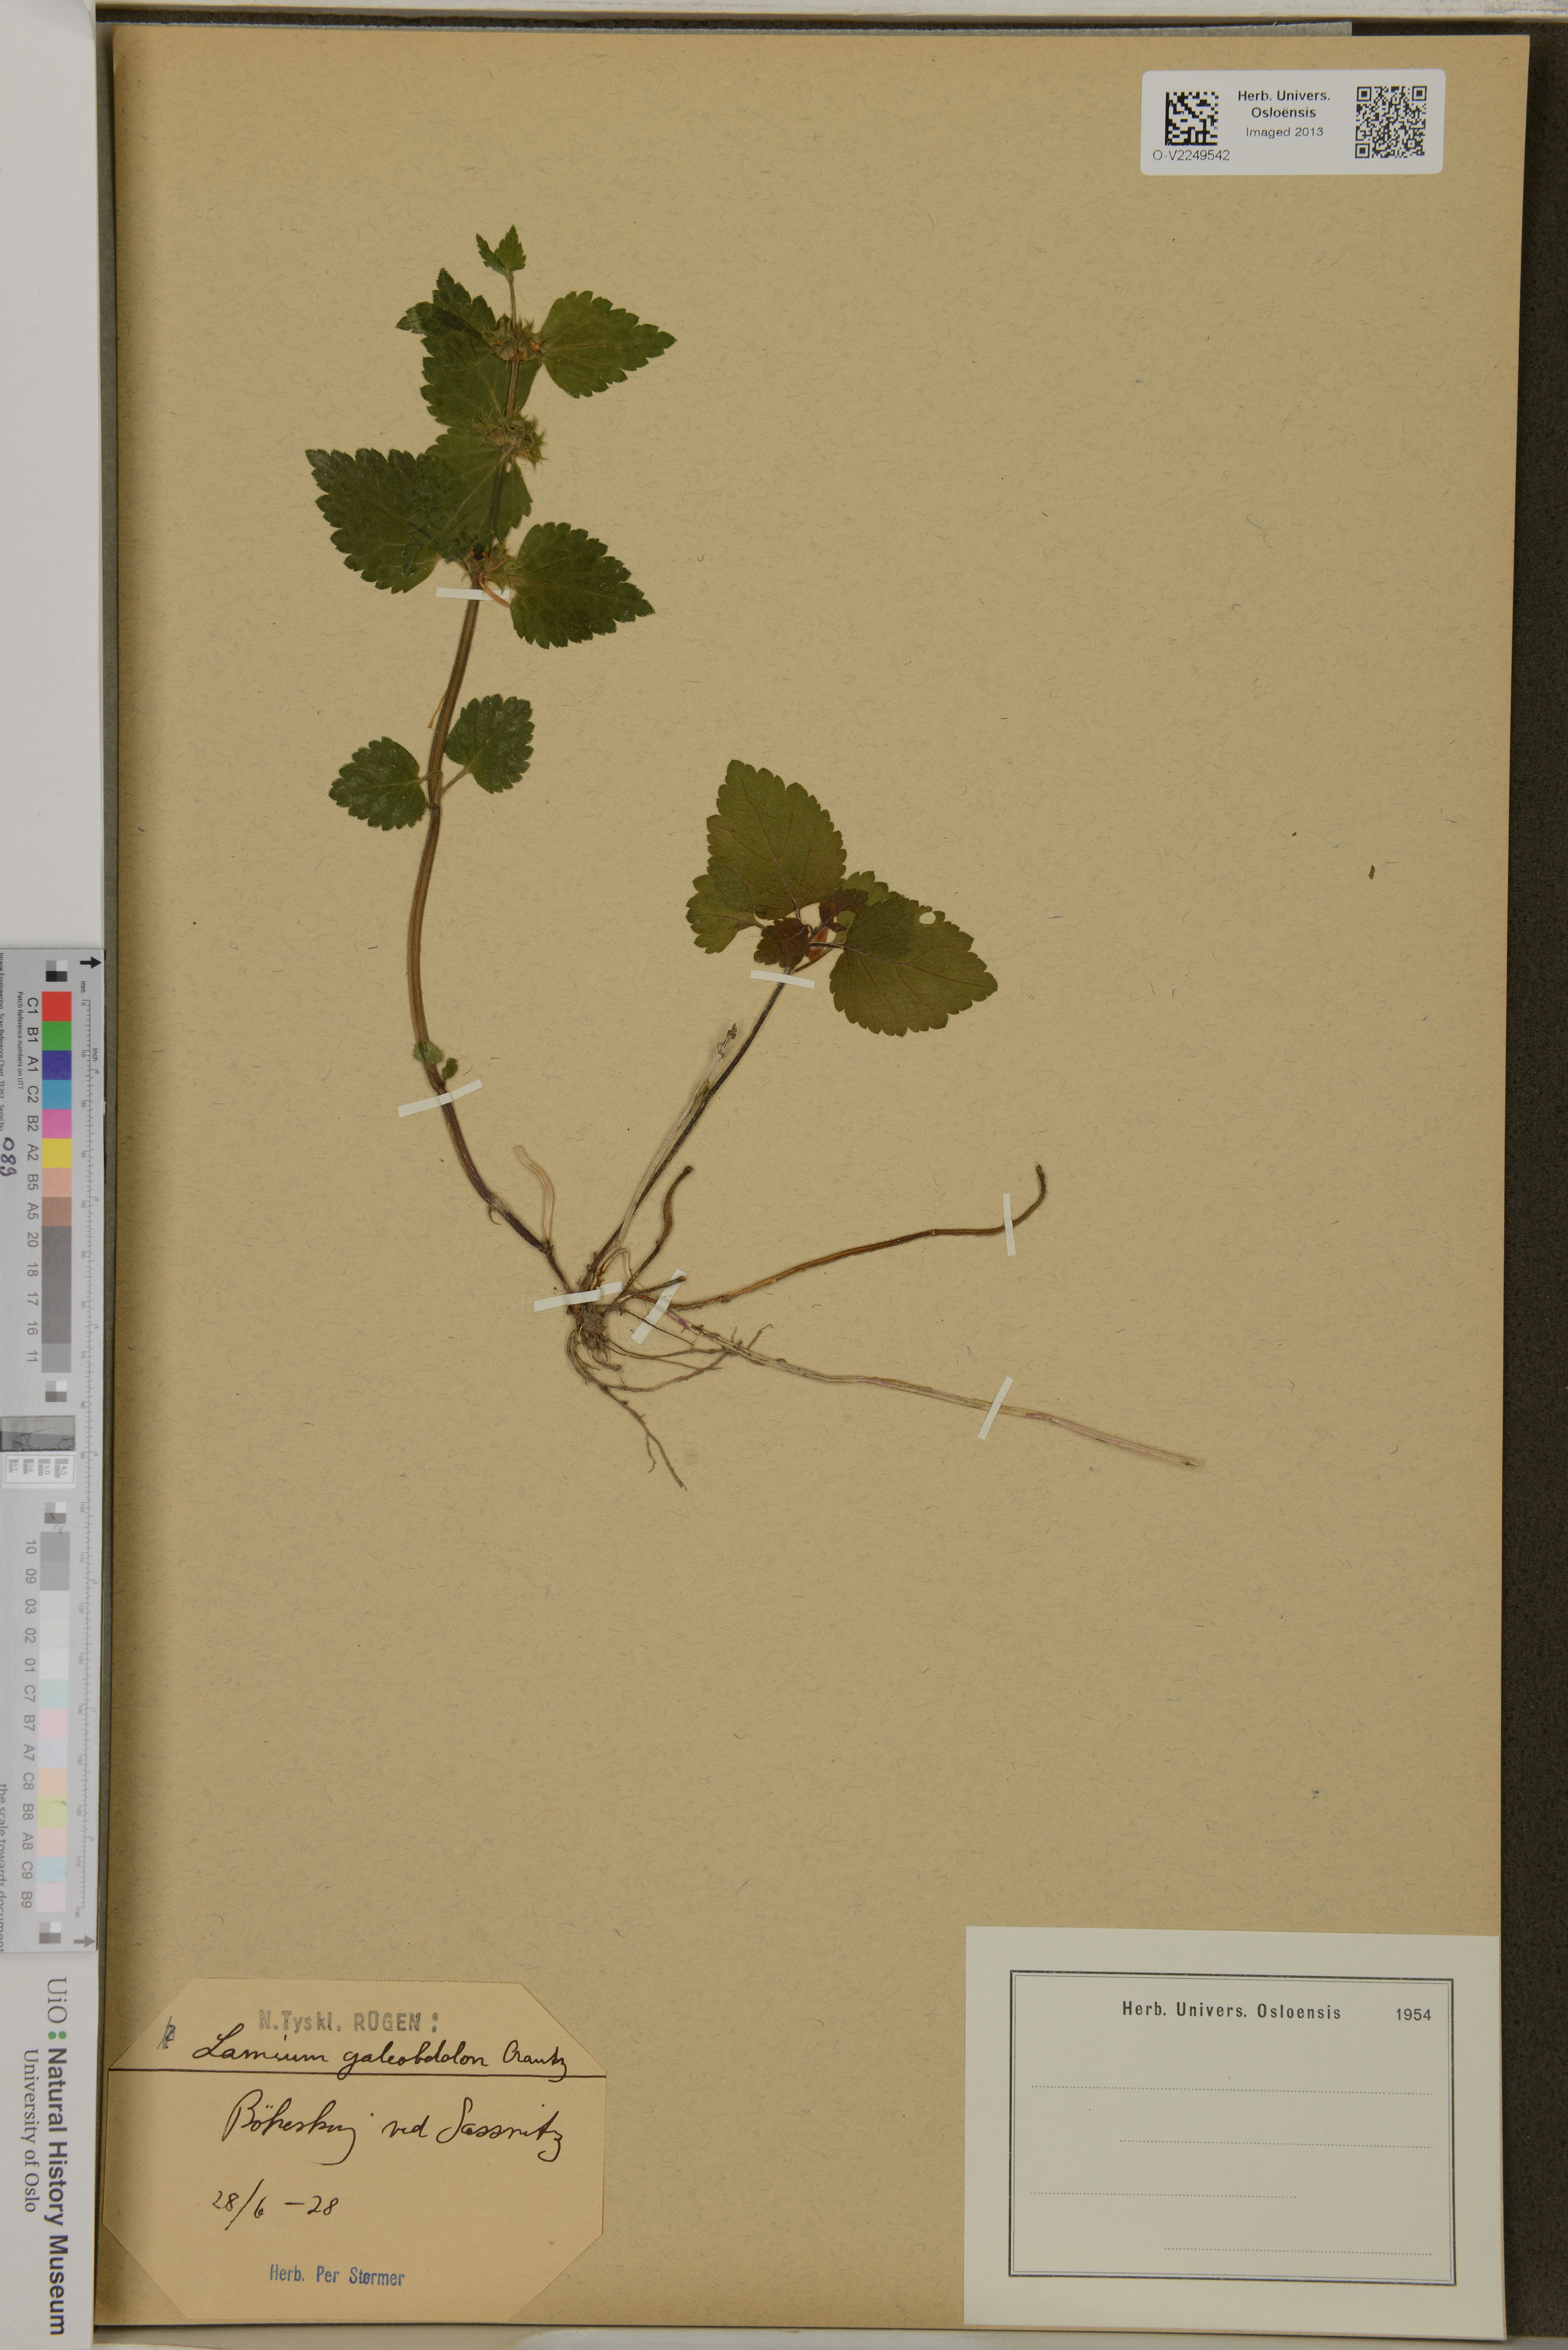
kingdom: Plantae
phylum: Tracheophyta
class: Magnoliopsida
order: Lamiales
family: Lamiaceae
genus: Lamium
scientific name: Lamium galeobdolon
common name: Yellow archangel
